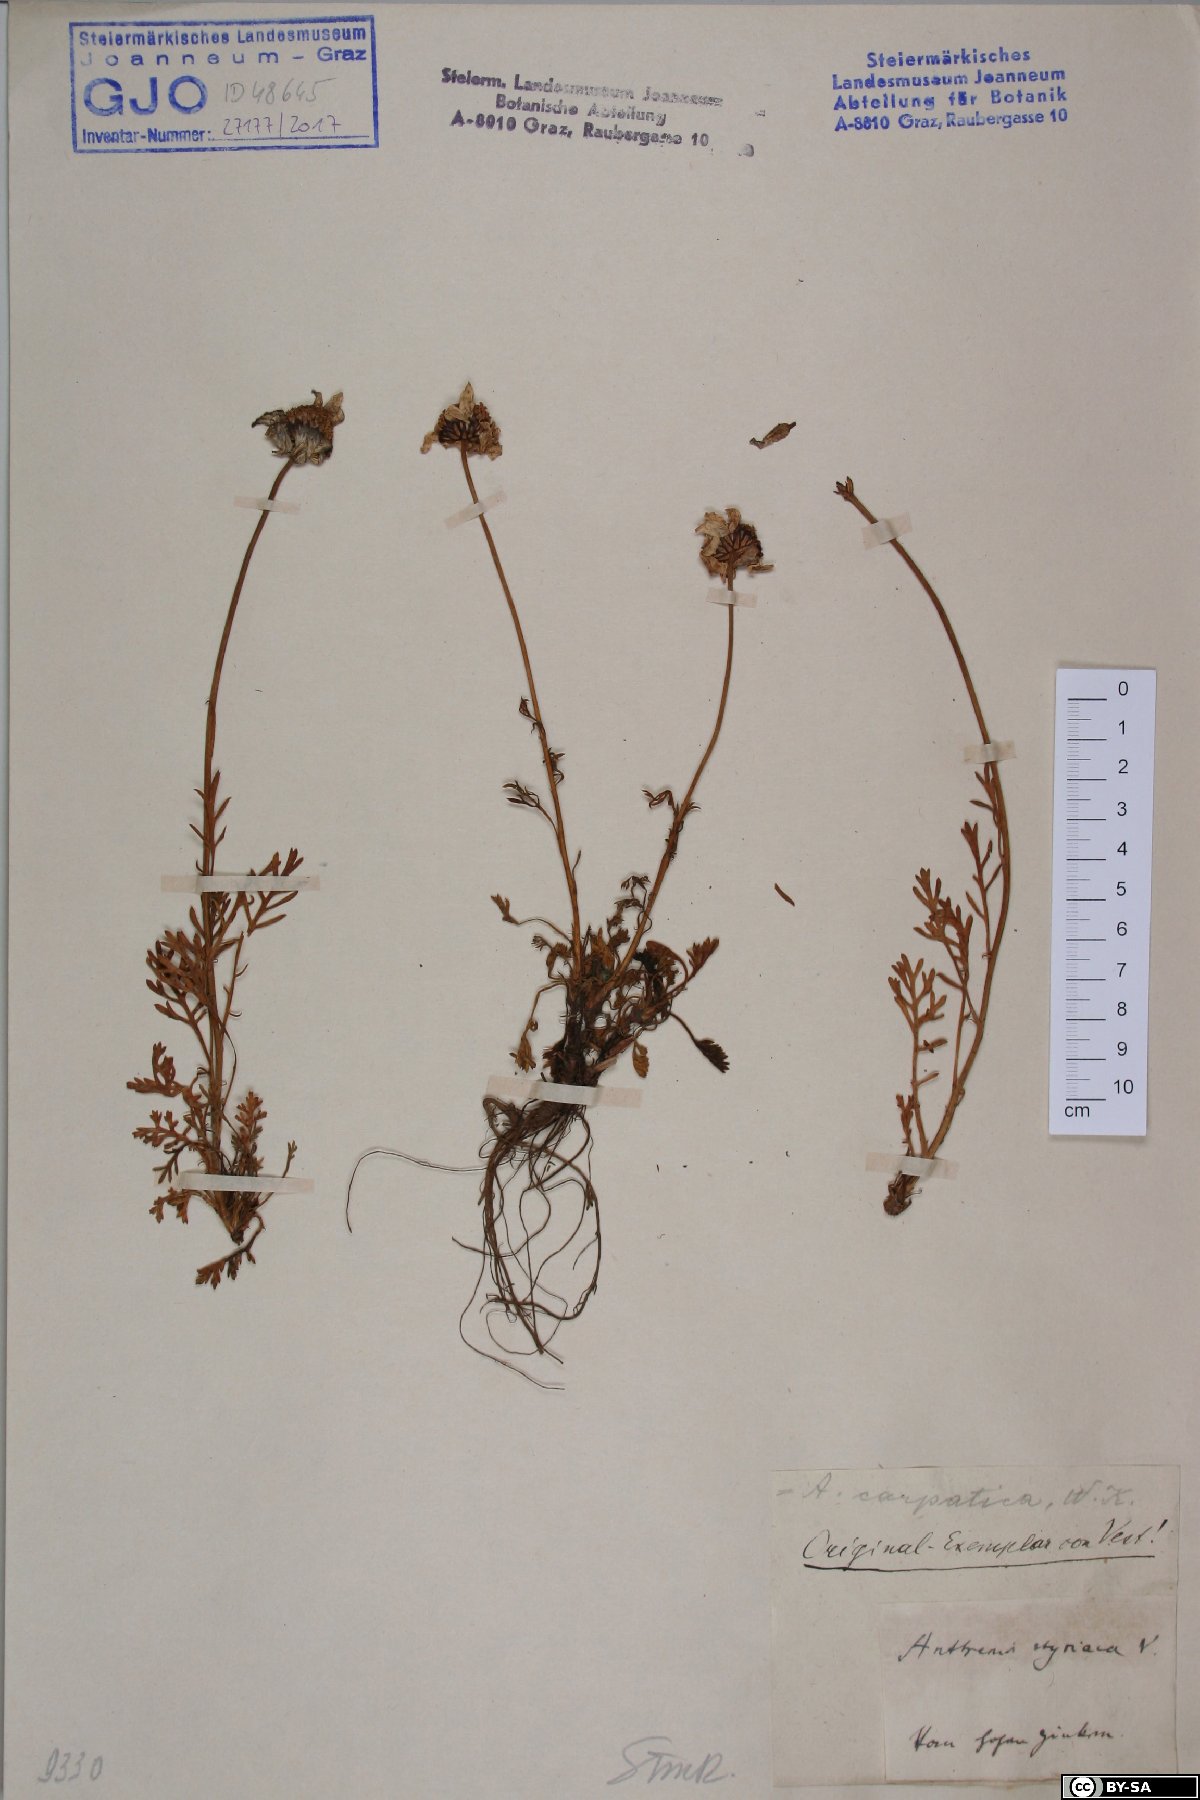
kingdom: Plantae
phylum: Tracheophyta
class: Magnoliopsida
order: Asterales
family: Asteraceae
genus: Anthemis
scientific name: Anthemis cretica
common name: Mountain dog-daisy
